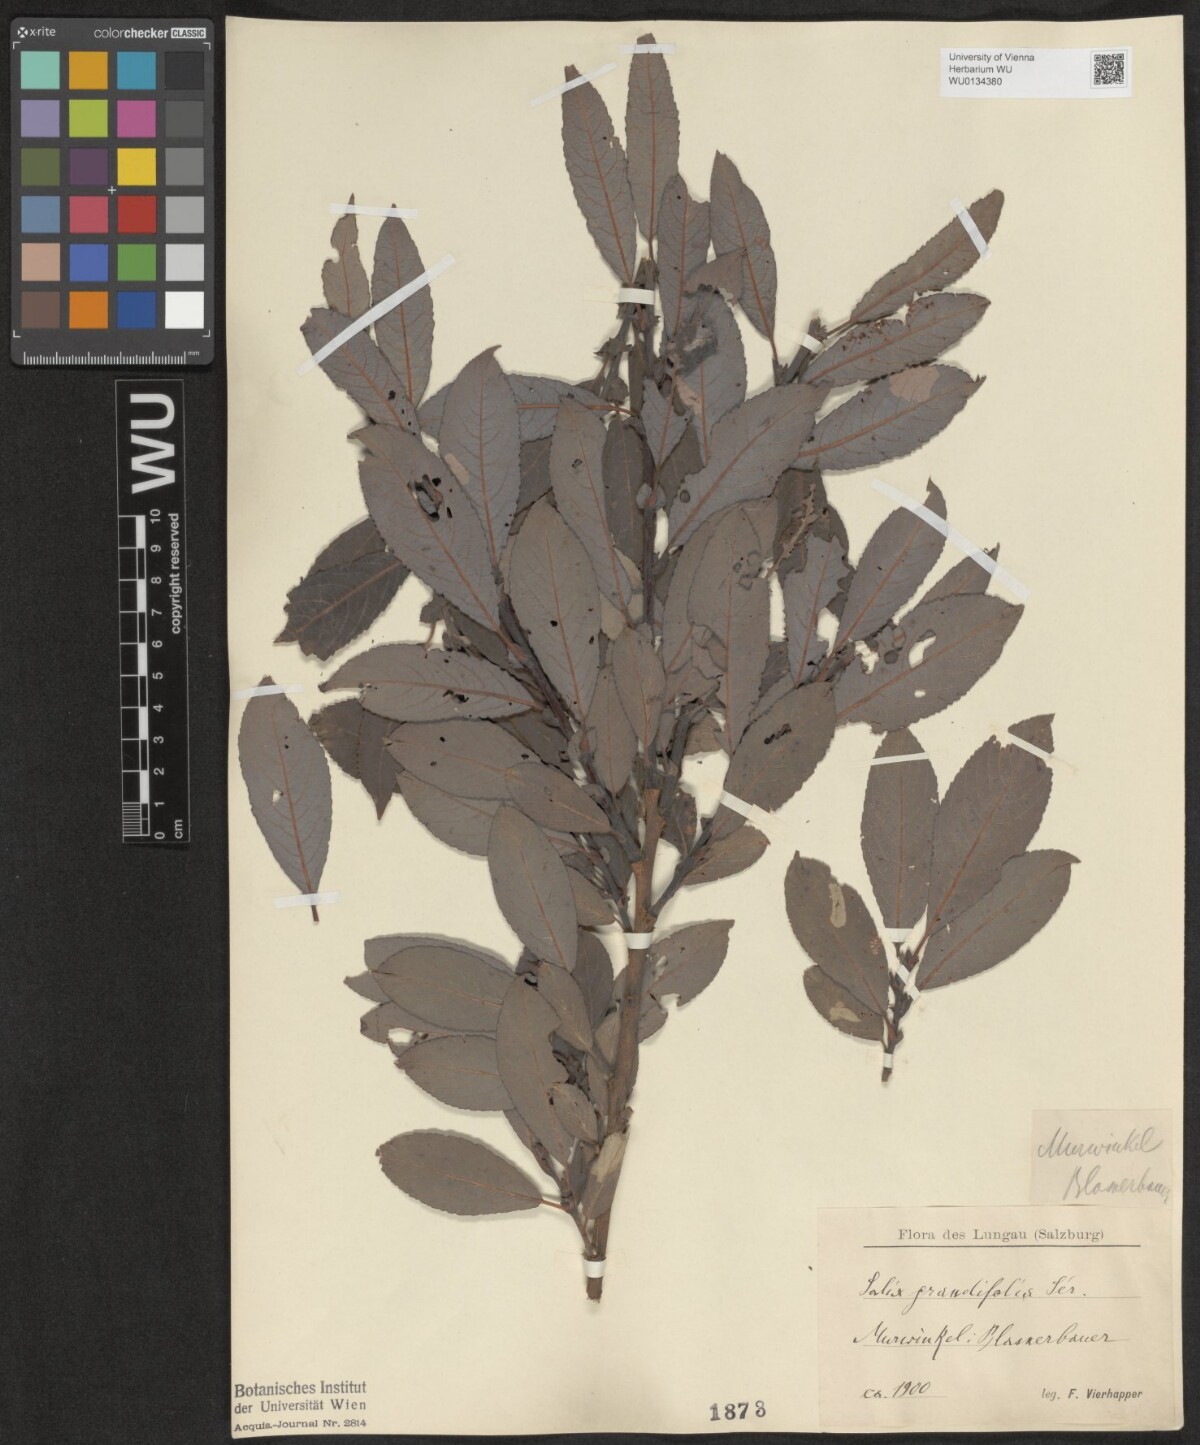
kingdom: Plantae
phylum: Tracheophyta
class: Magnoliopsida
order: Malpighiales
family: Salicaceae
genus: Salix
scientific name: Salix appendiculata
